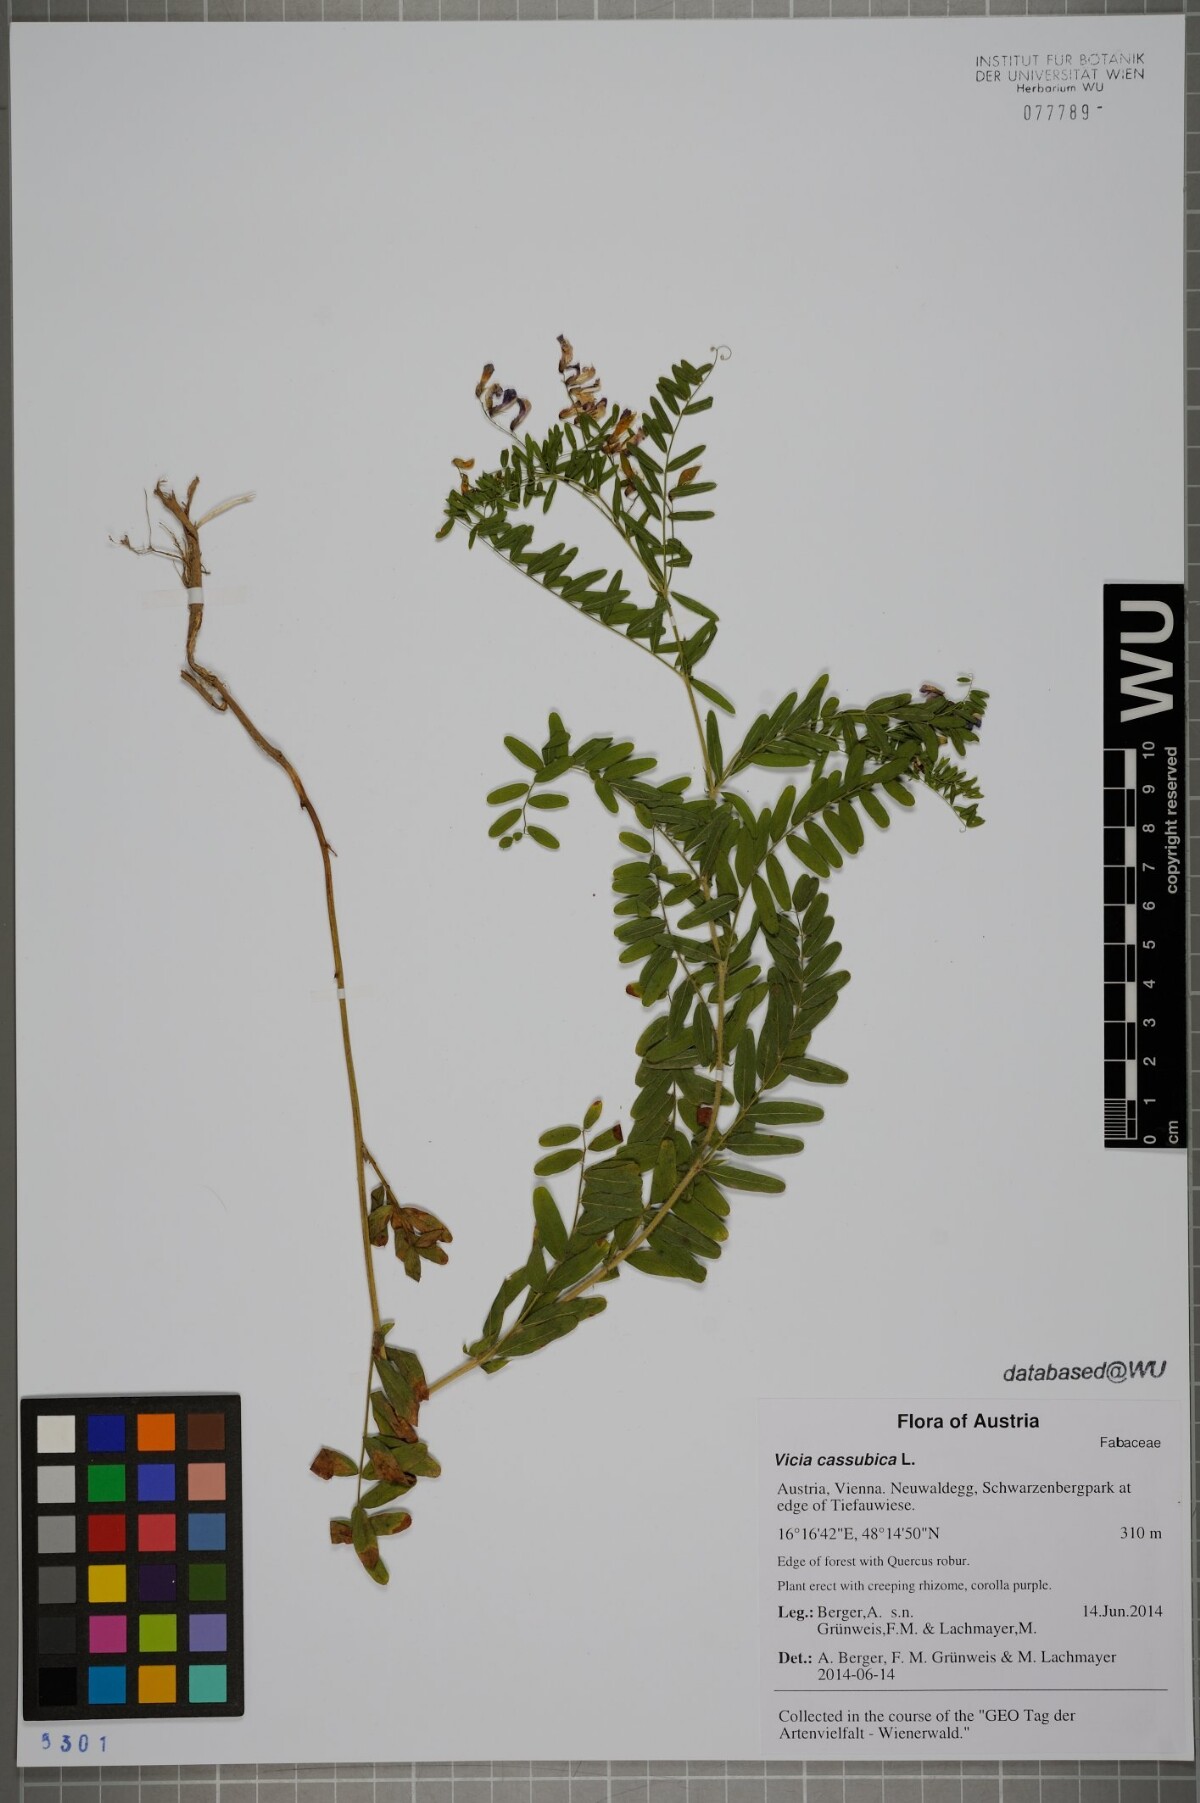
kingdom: Plantae
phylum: Tracheophyta
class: Magnoliopsida
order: Fabales
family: Fabaceae
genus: Vicia
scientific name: Vicia cassubica
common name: Danzig vetch
